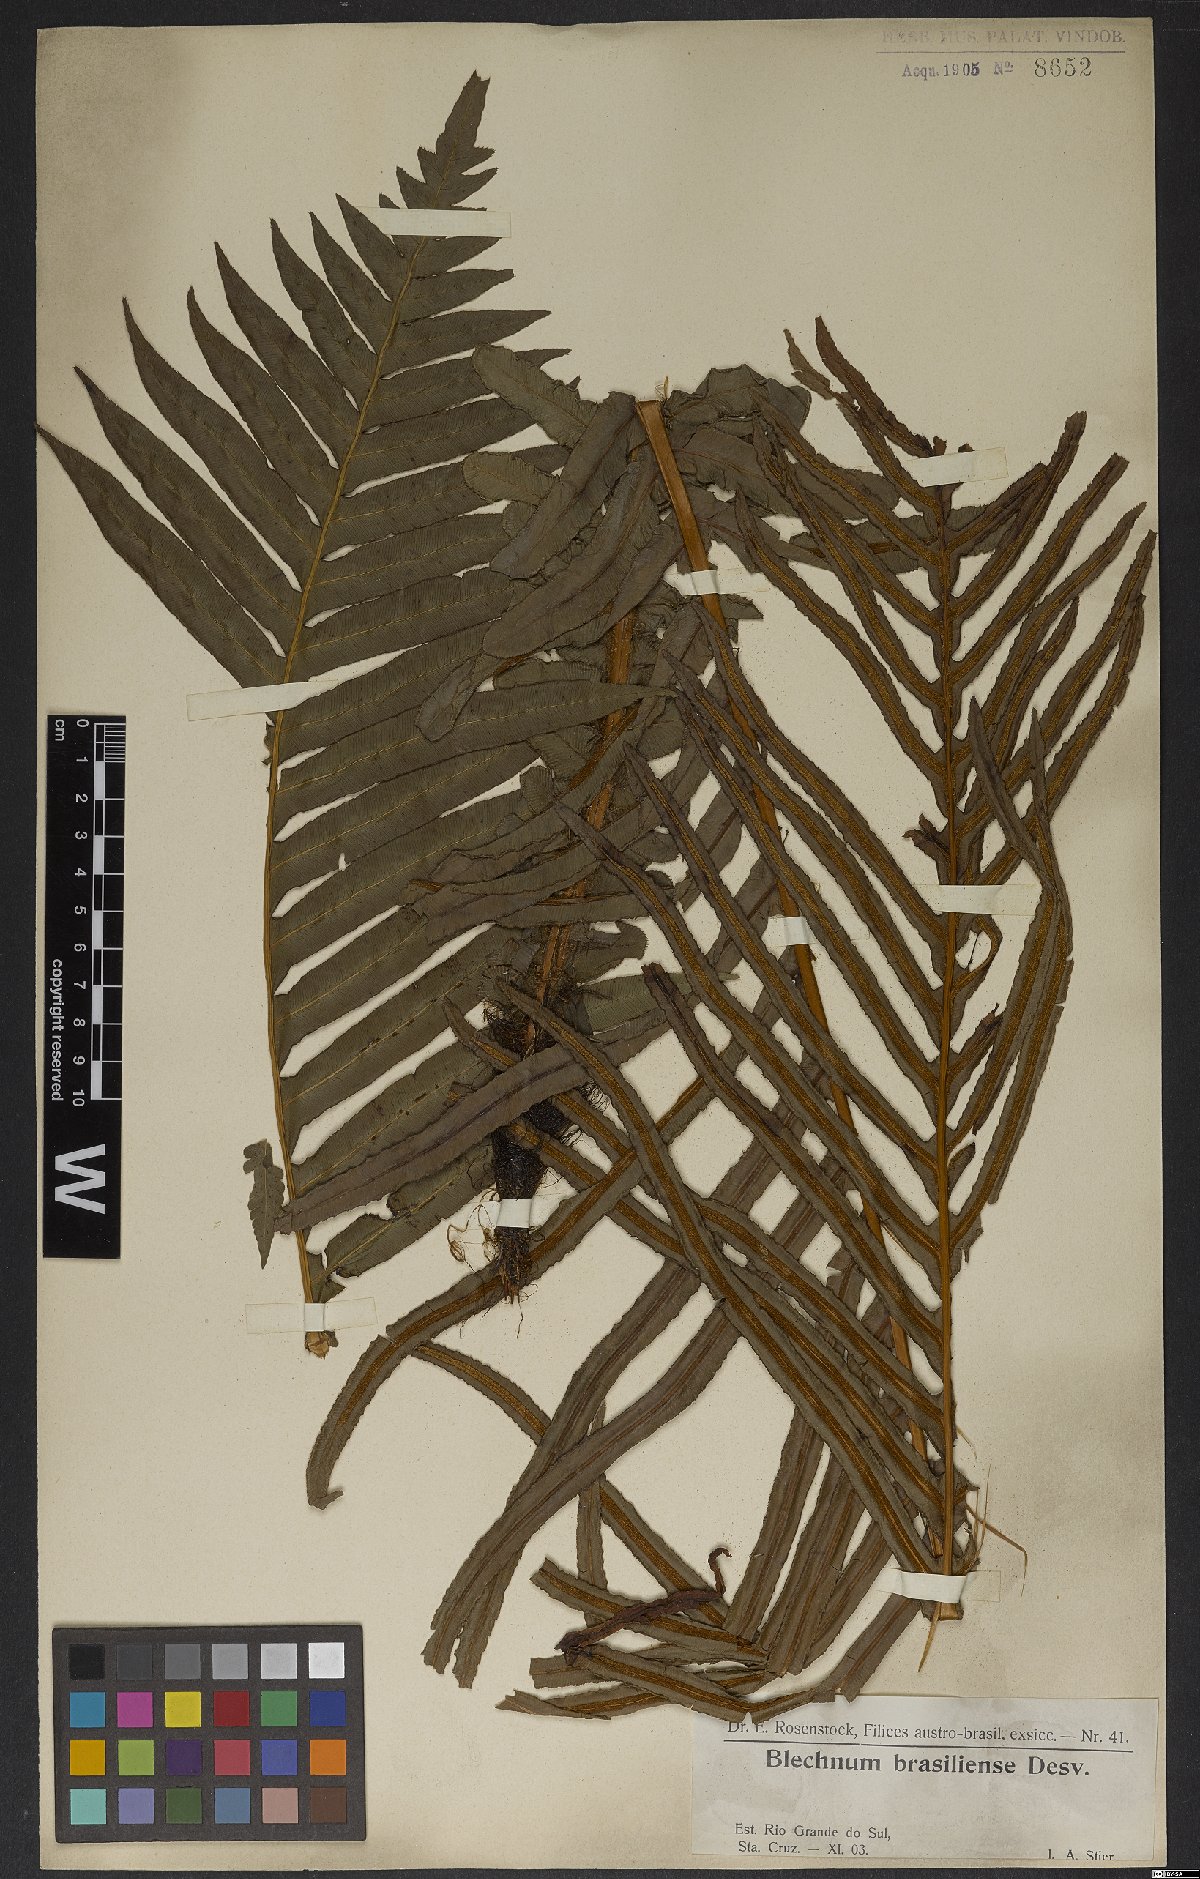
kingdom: Plantae
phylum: Tracheophyta
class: Polypodiopsida
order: Polypodiales
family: Blechnaceae
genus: Neoblechnum
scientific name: Neoblechnum brasiliense
